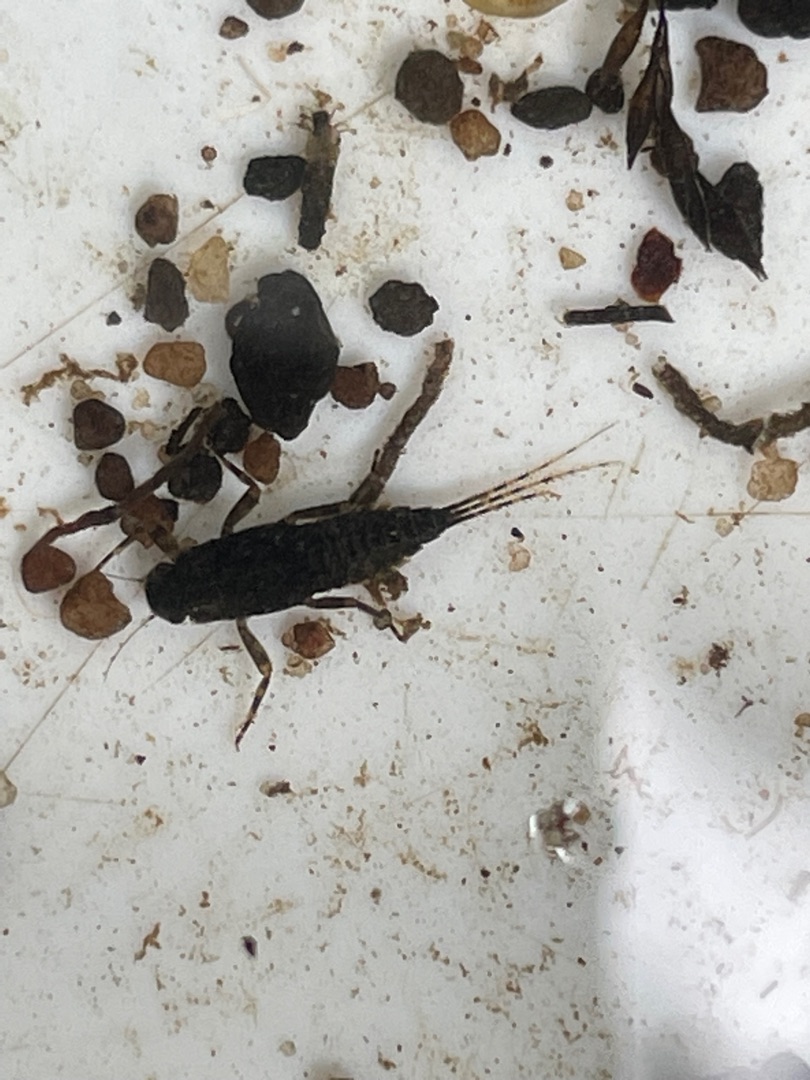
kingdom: Animalia
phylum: Arthropoda
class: Insecta
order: Ephemeroptera
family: Ephemerellidae
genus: Serratella
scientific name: Serratella ignita
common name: Blåvinget sommerdøgnflue
